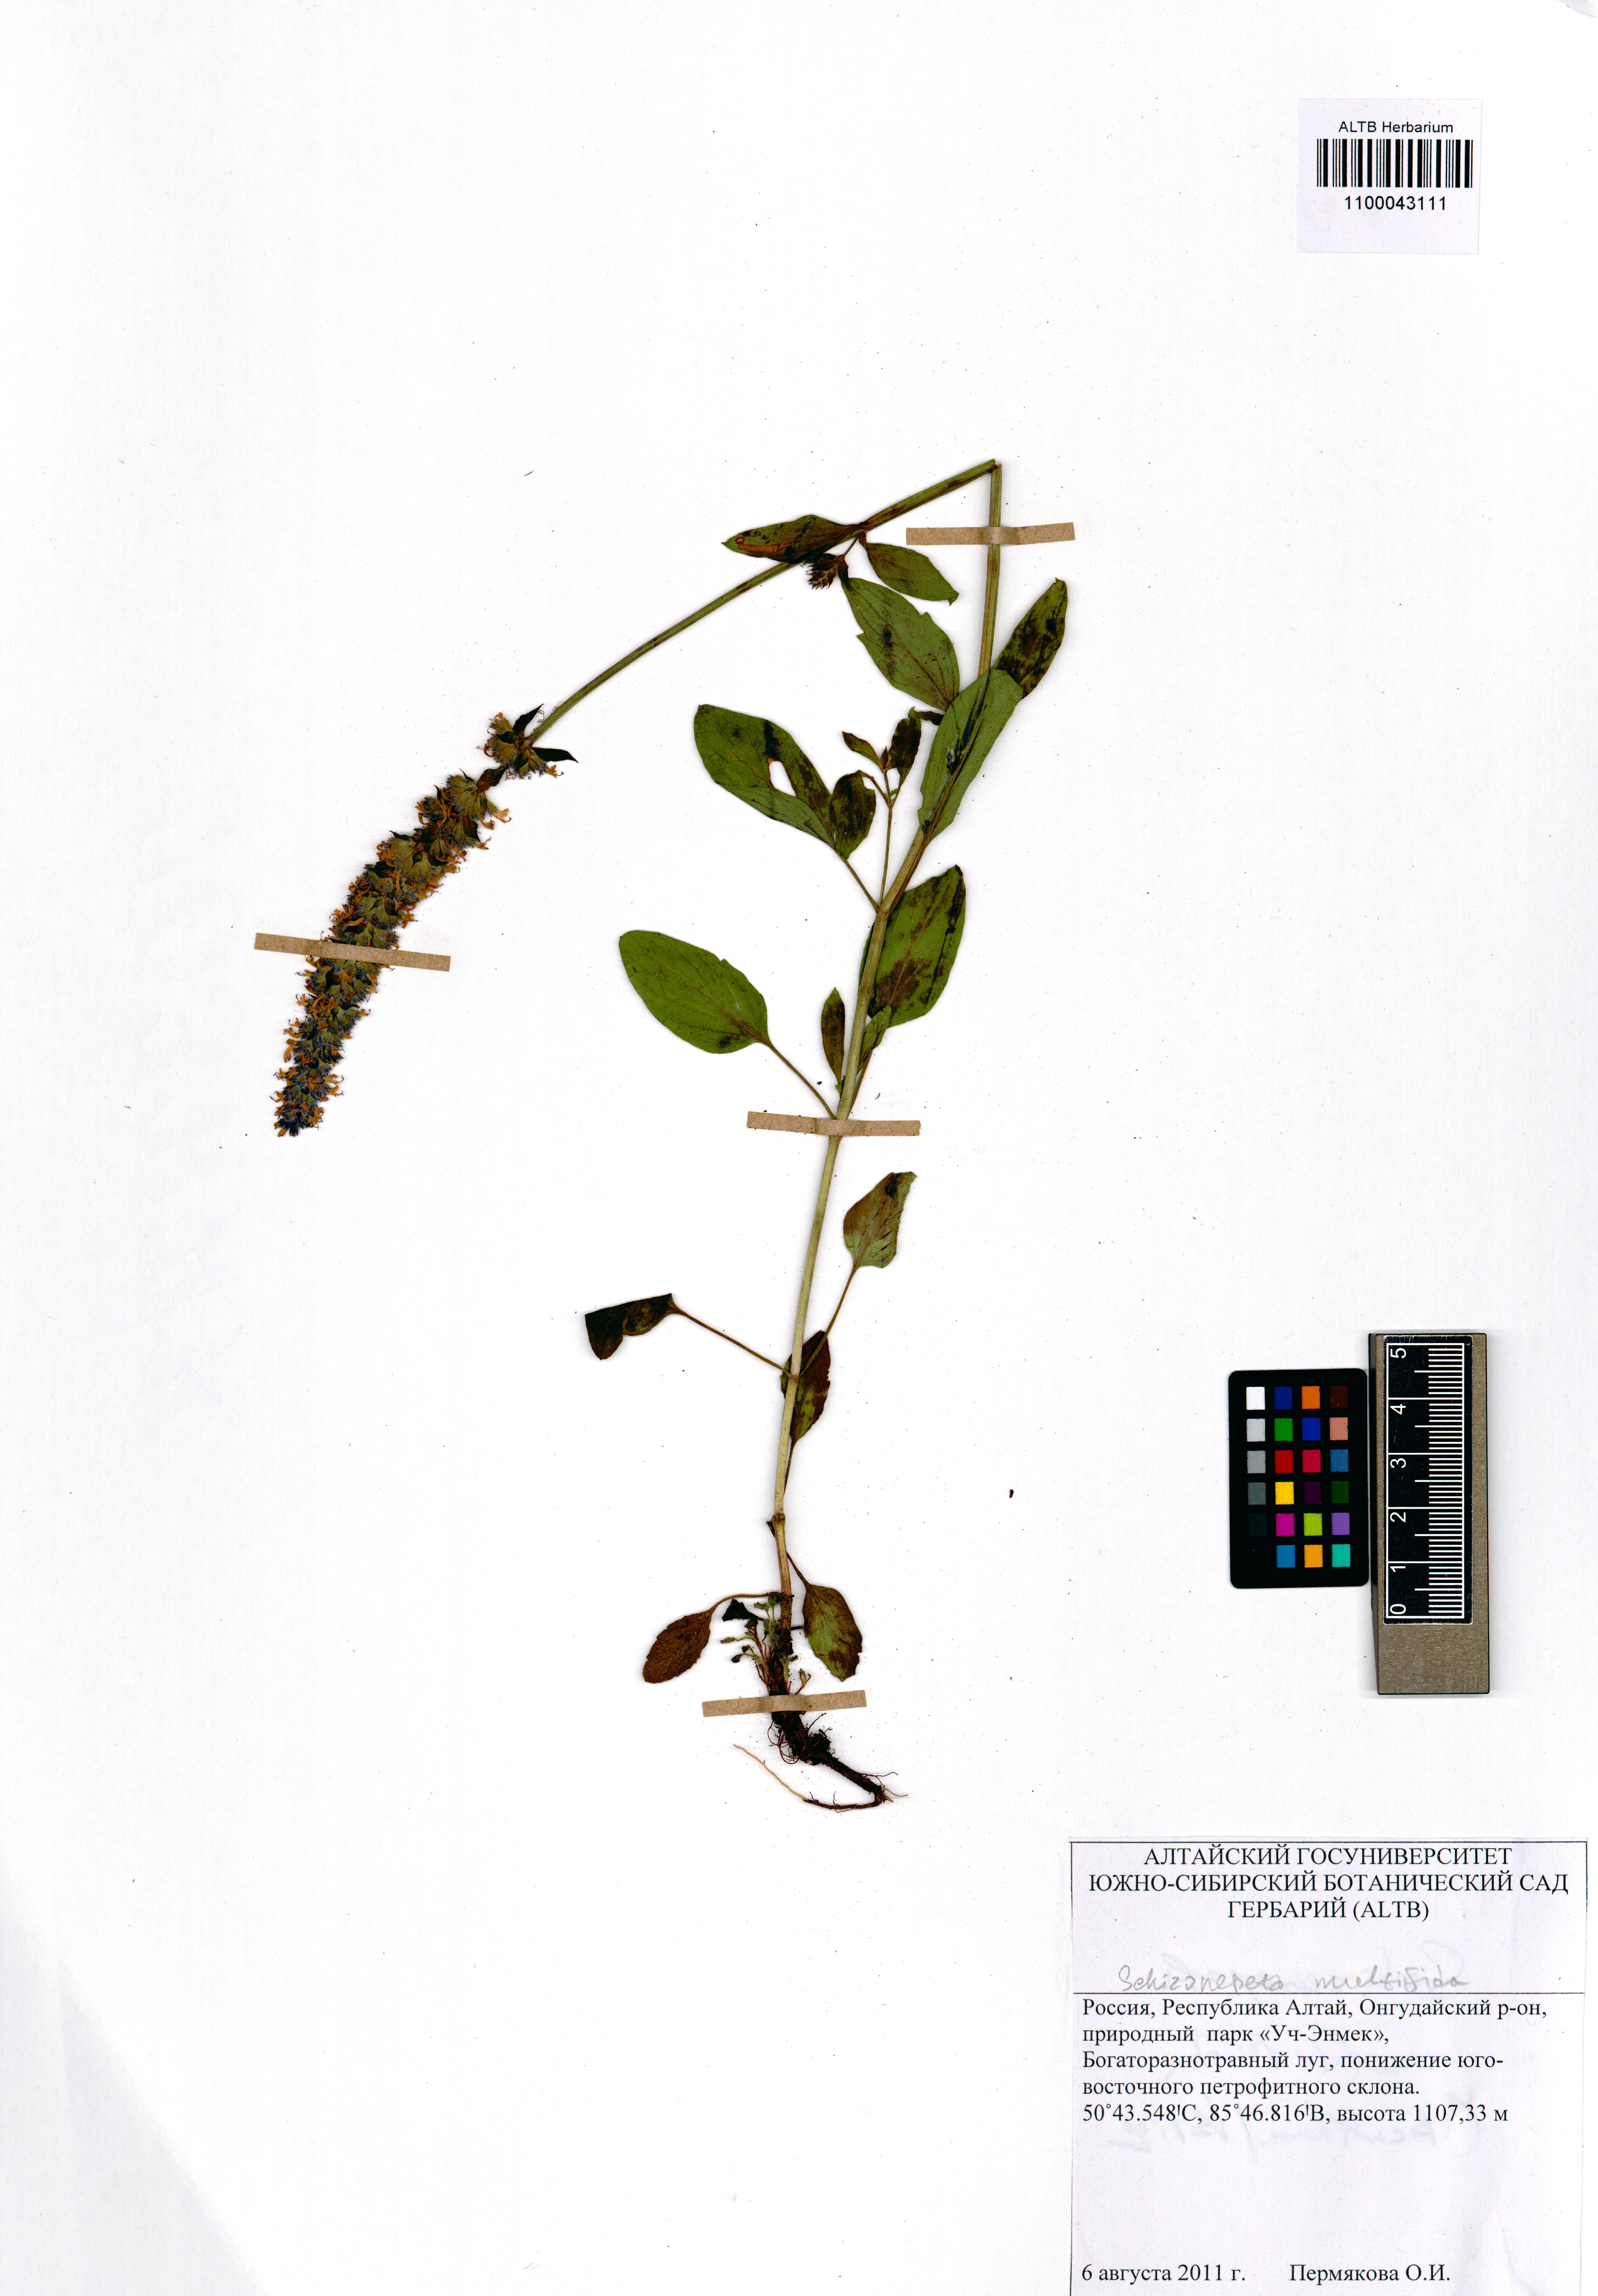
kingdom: Plantae
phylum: Tracheophyta
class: Magnoliopsida
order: Lamiales
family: Lamiaceae
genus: Nepeta
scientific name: Nepeta multifida
